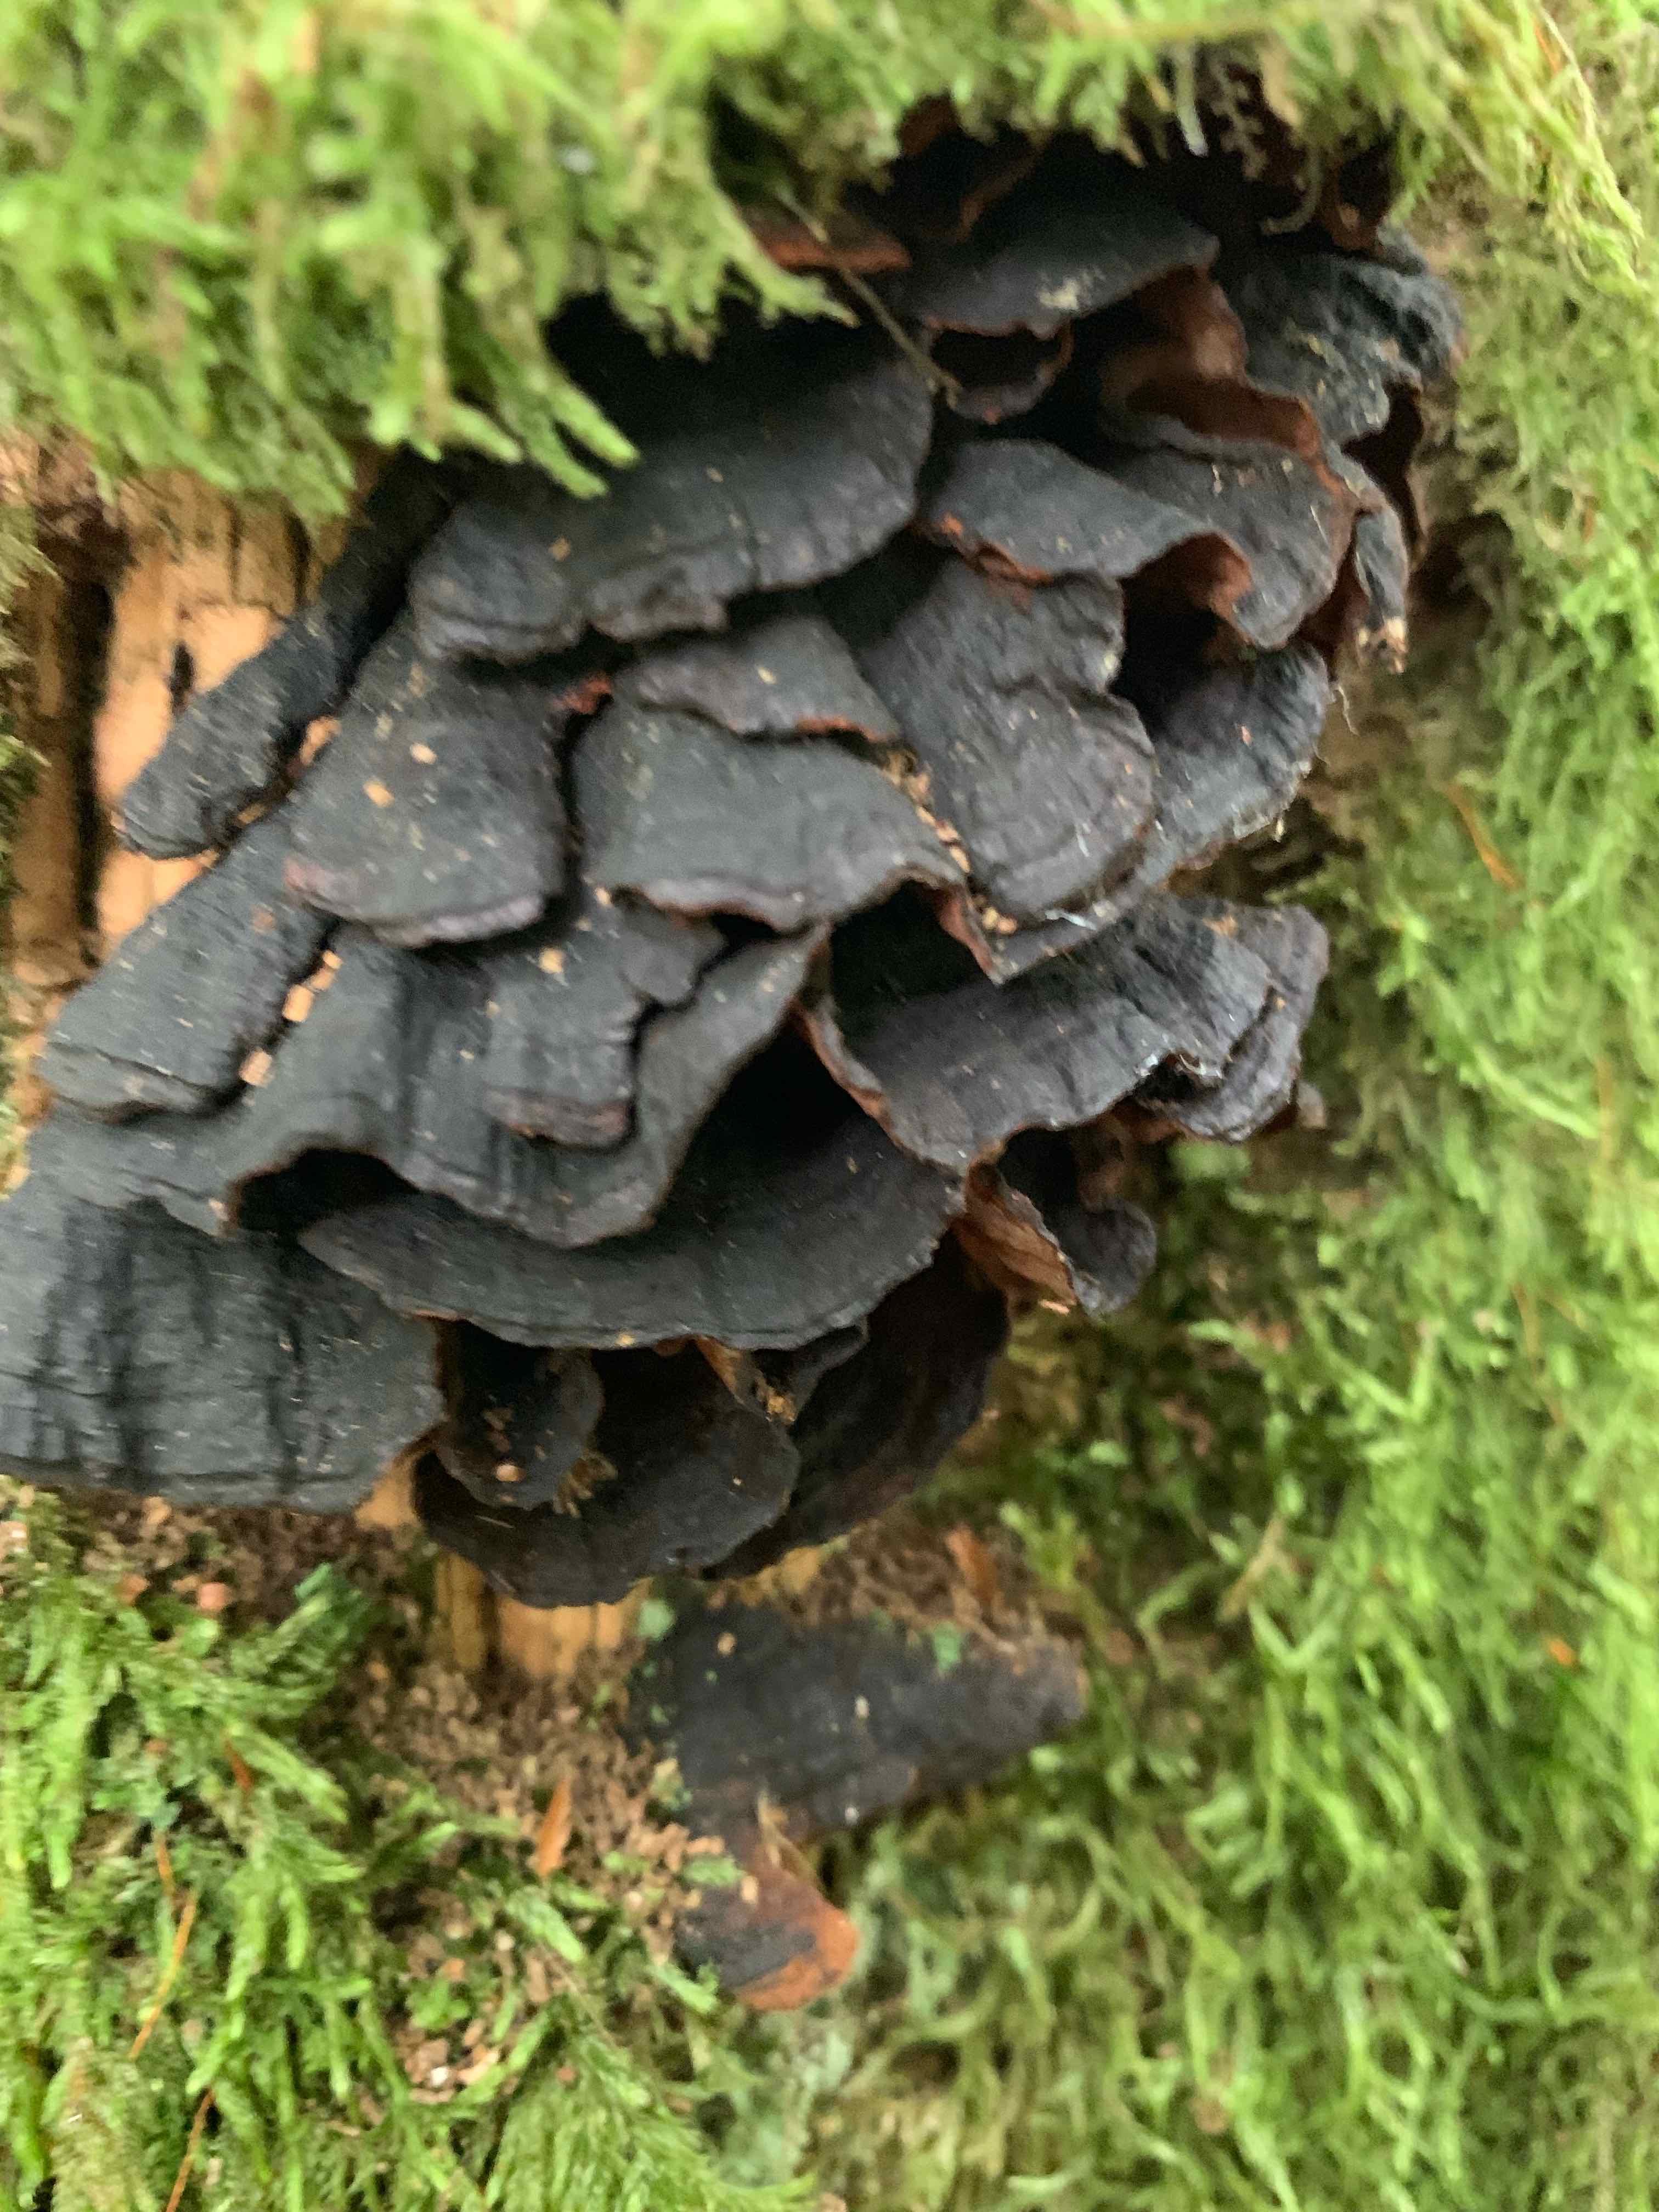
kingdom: Fungi
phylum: Basidiomycota
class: Agaricomycetes
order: Hymenochaetales
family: Hymenochaetaceae
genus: Hymenochaete
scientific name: Hymenochaete rubiginosa
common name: stiv ruslædersvamp
